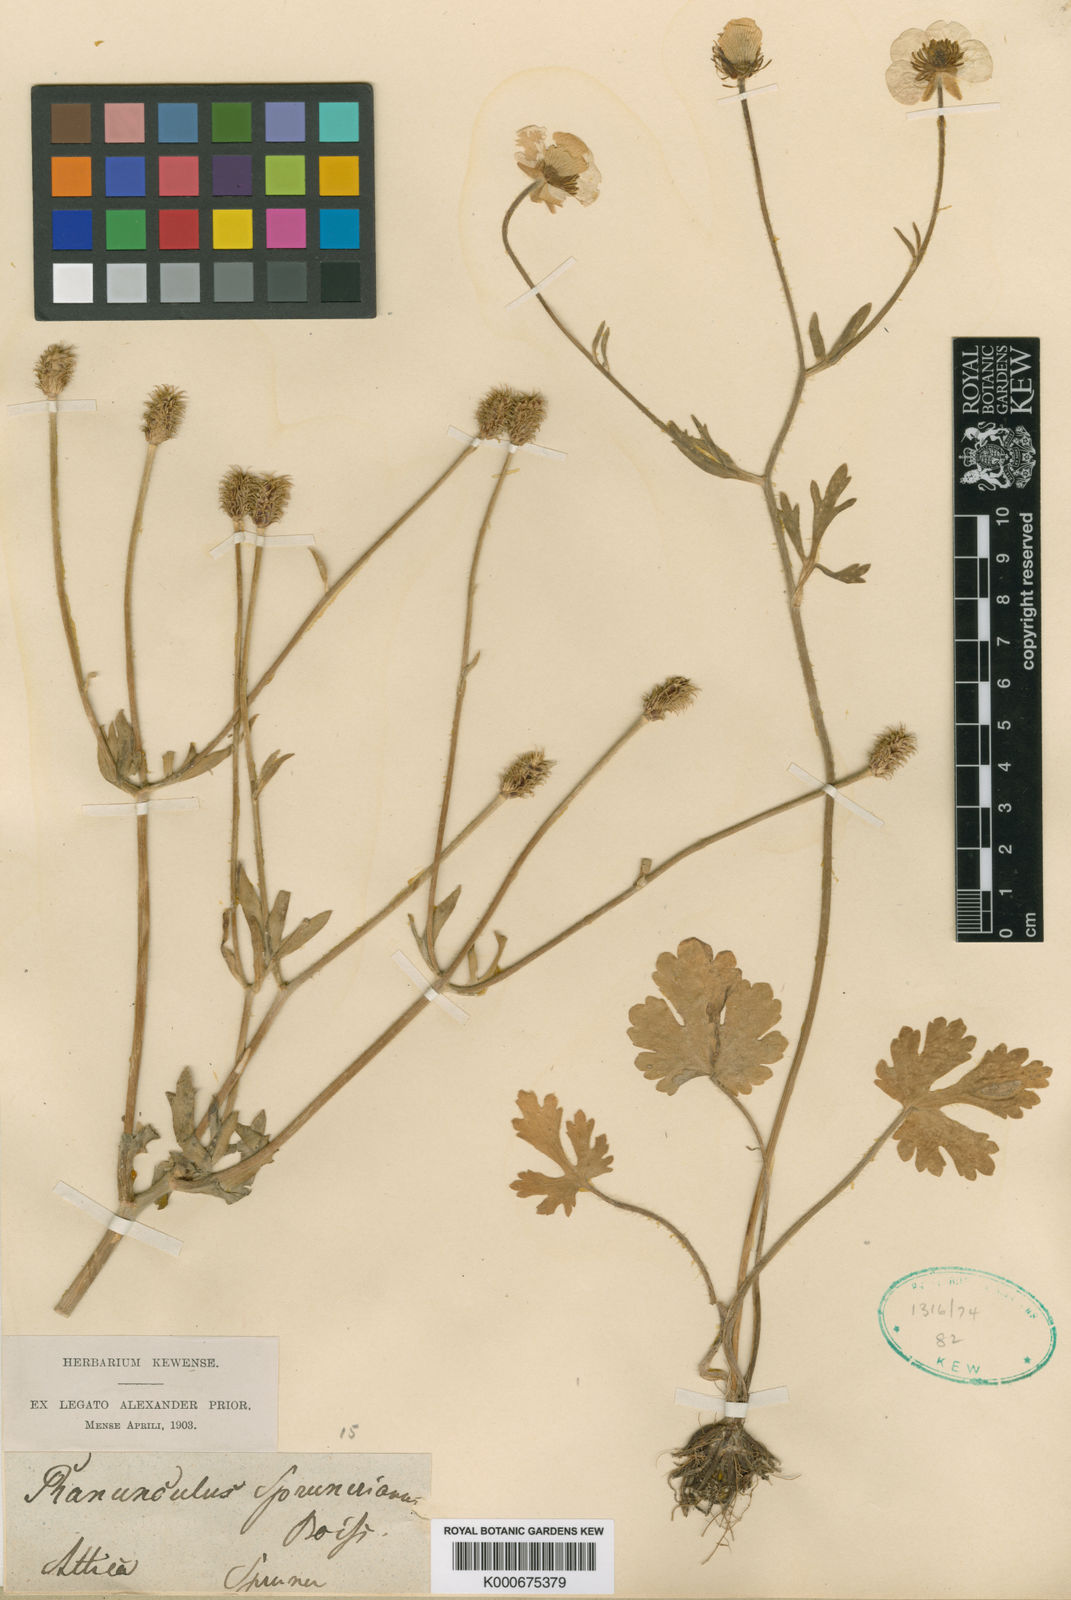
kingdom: Plantae
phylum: Tracheophyta
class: Magnoliopsida
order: Ranunculales
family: Ranunculaceae
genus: Ranunculus
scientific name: Ranunculus sprunerianus
